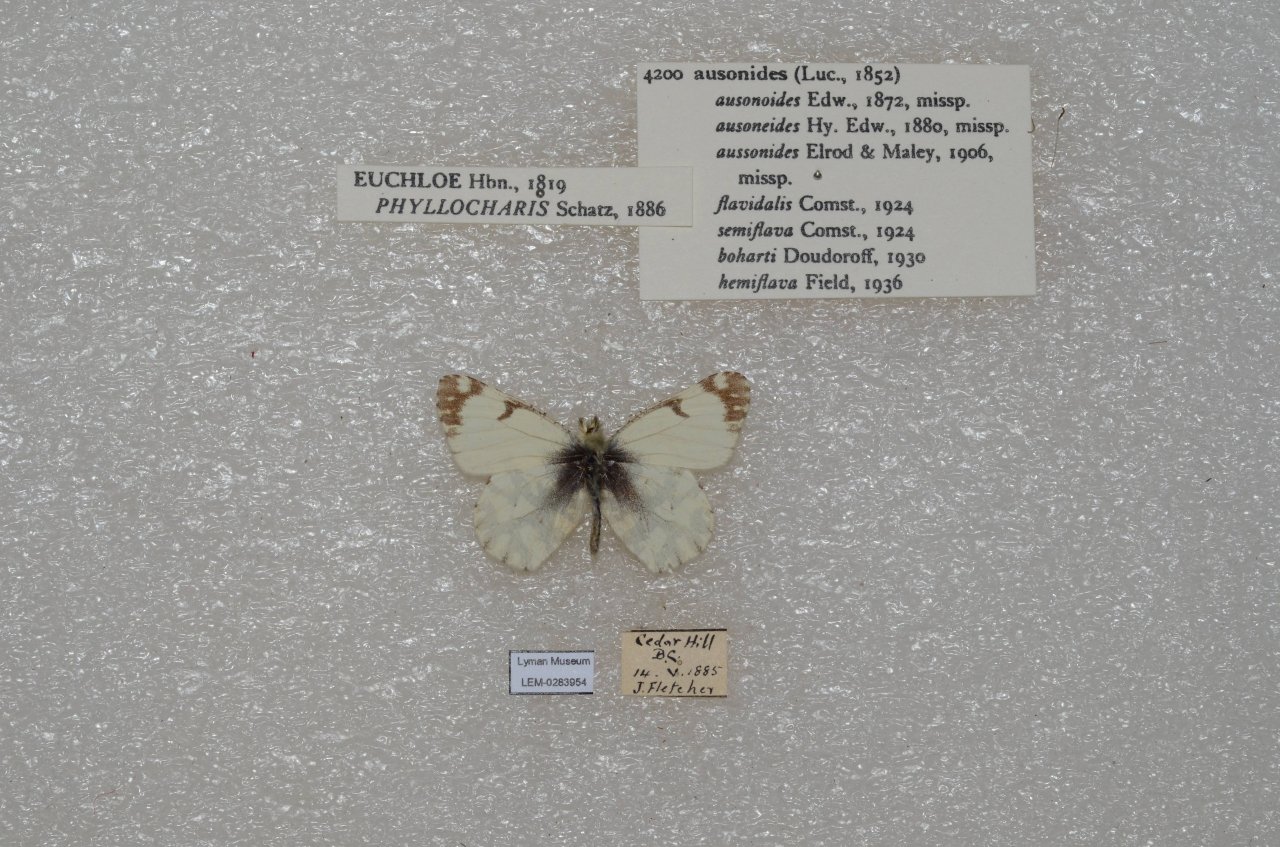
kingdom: Animalia
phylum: Arthropoda
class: Insecta
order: Lepidoptera
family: Pieridae
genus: Euchloe
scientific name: Euchloe ausonides
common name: Large Marble
